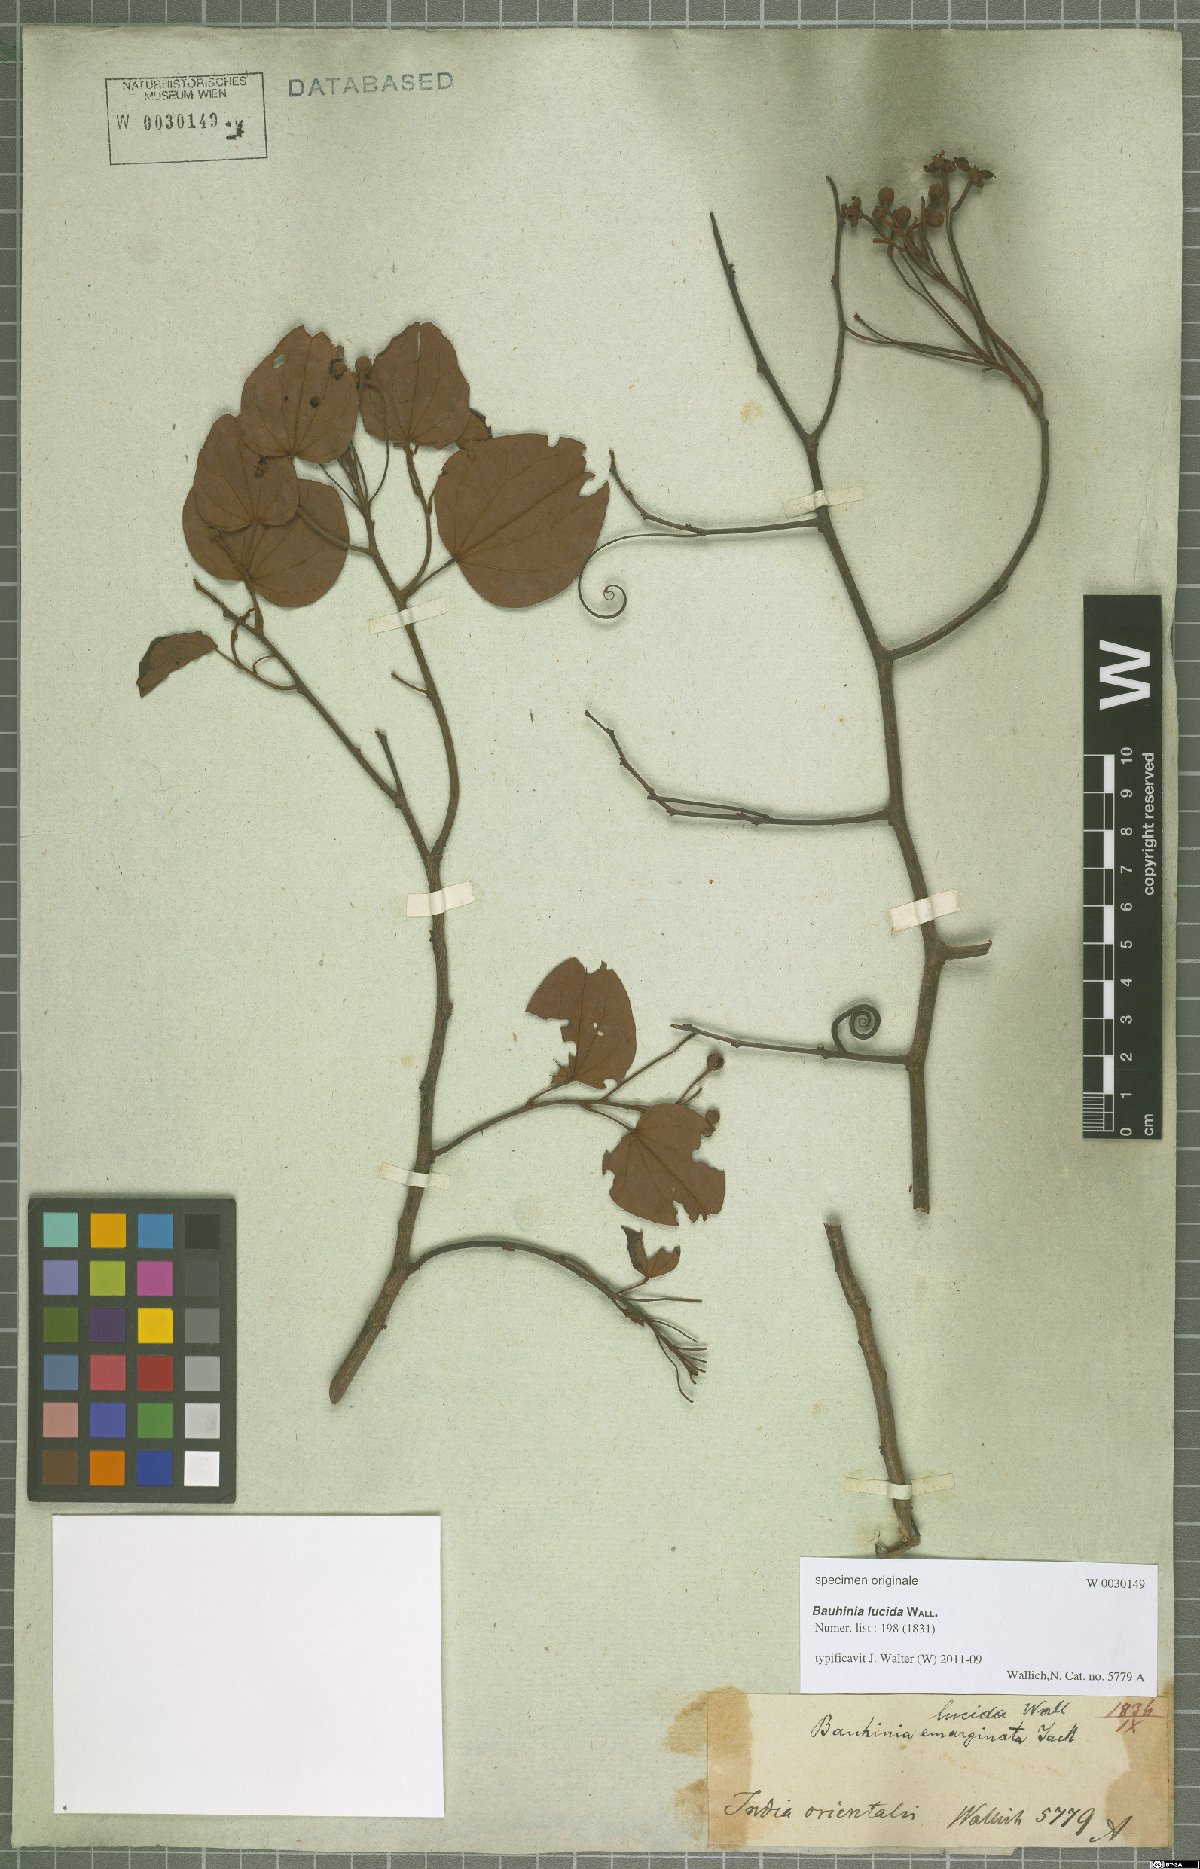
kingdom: Plantae
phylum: Tracheophyta
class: Magnoliopsida
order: Fabales
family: Fabaceae
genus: Bauhinia
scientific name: Bauhinia lucida
